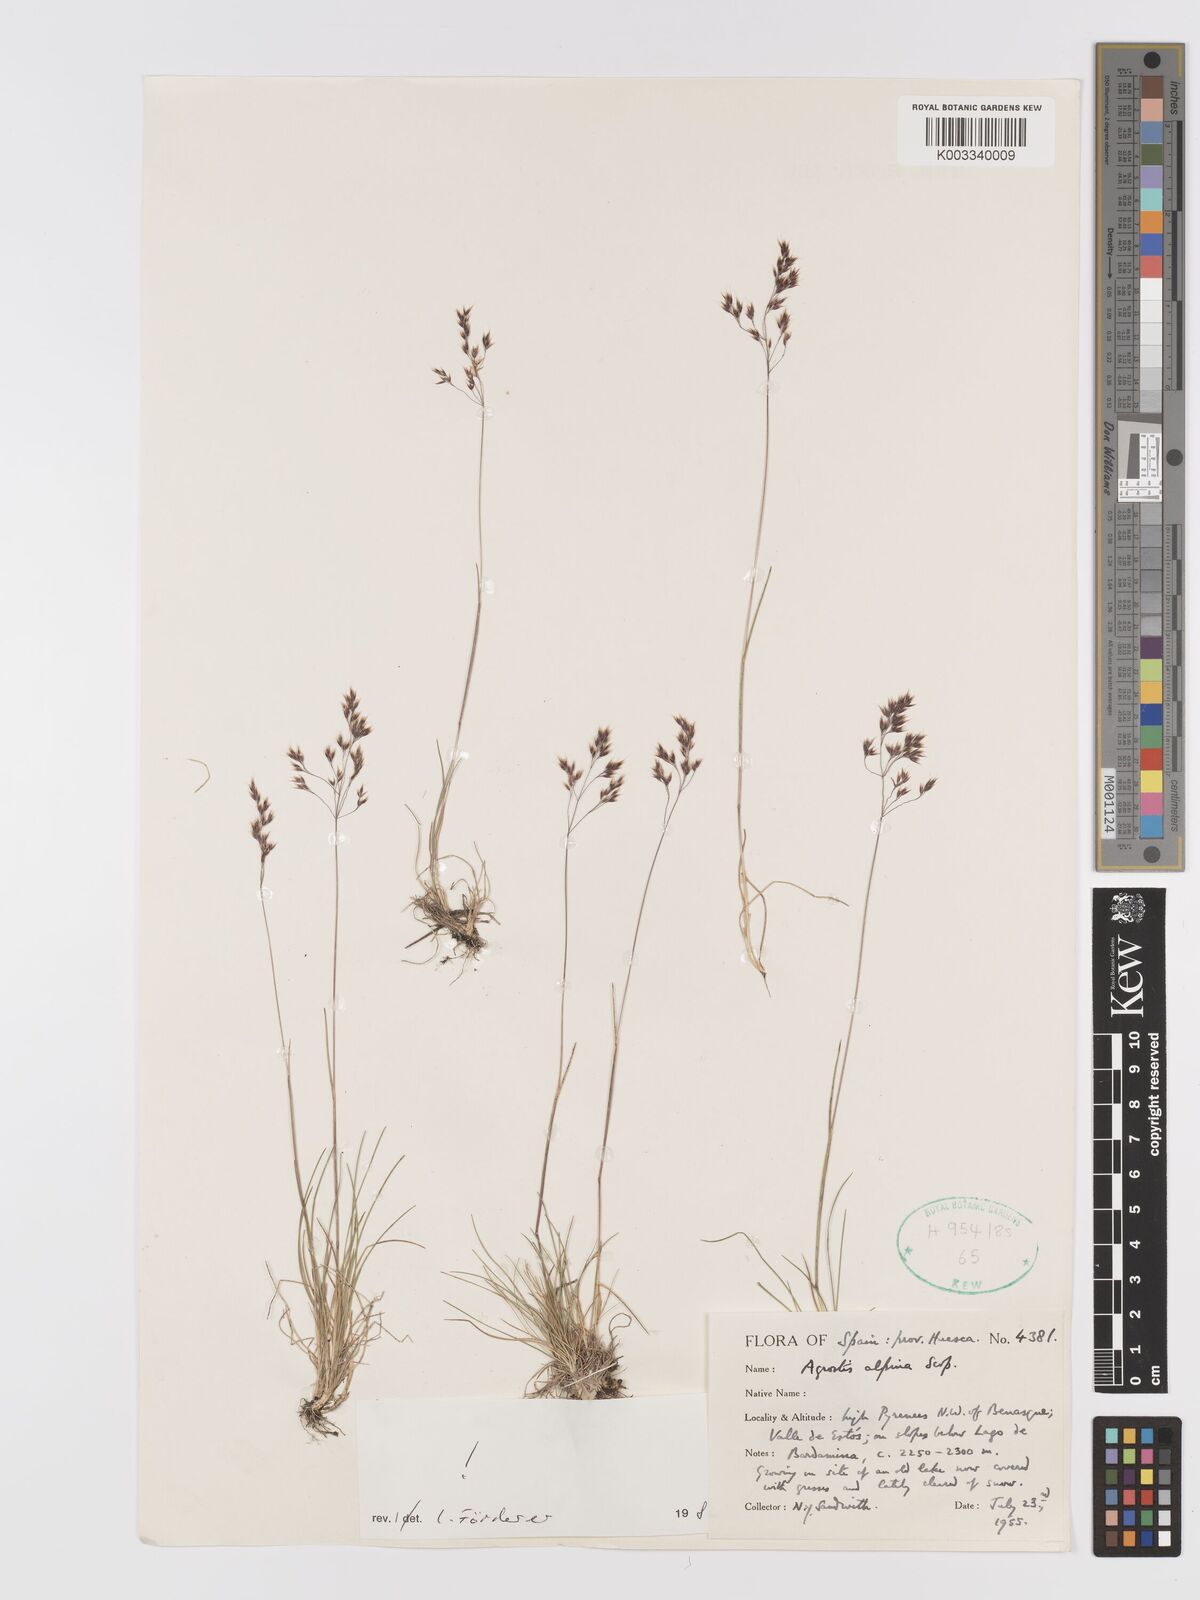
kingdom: Plantae
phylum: Tracheophyta
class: Liliopsida
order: Poales
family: Poaceae
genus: Alpagrostis
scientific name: Alpagrostis alpina
